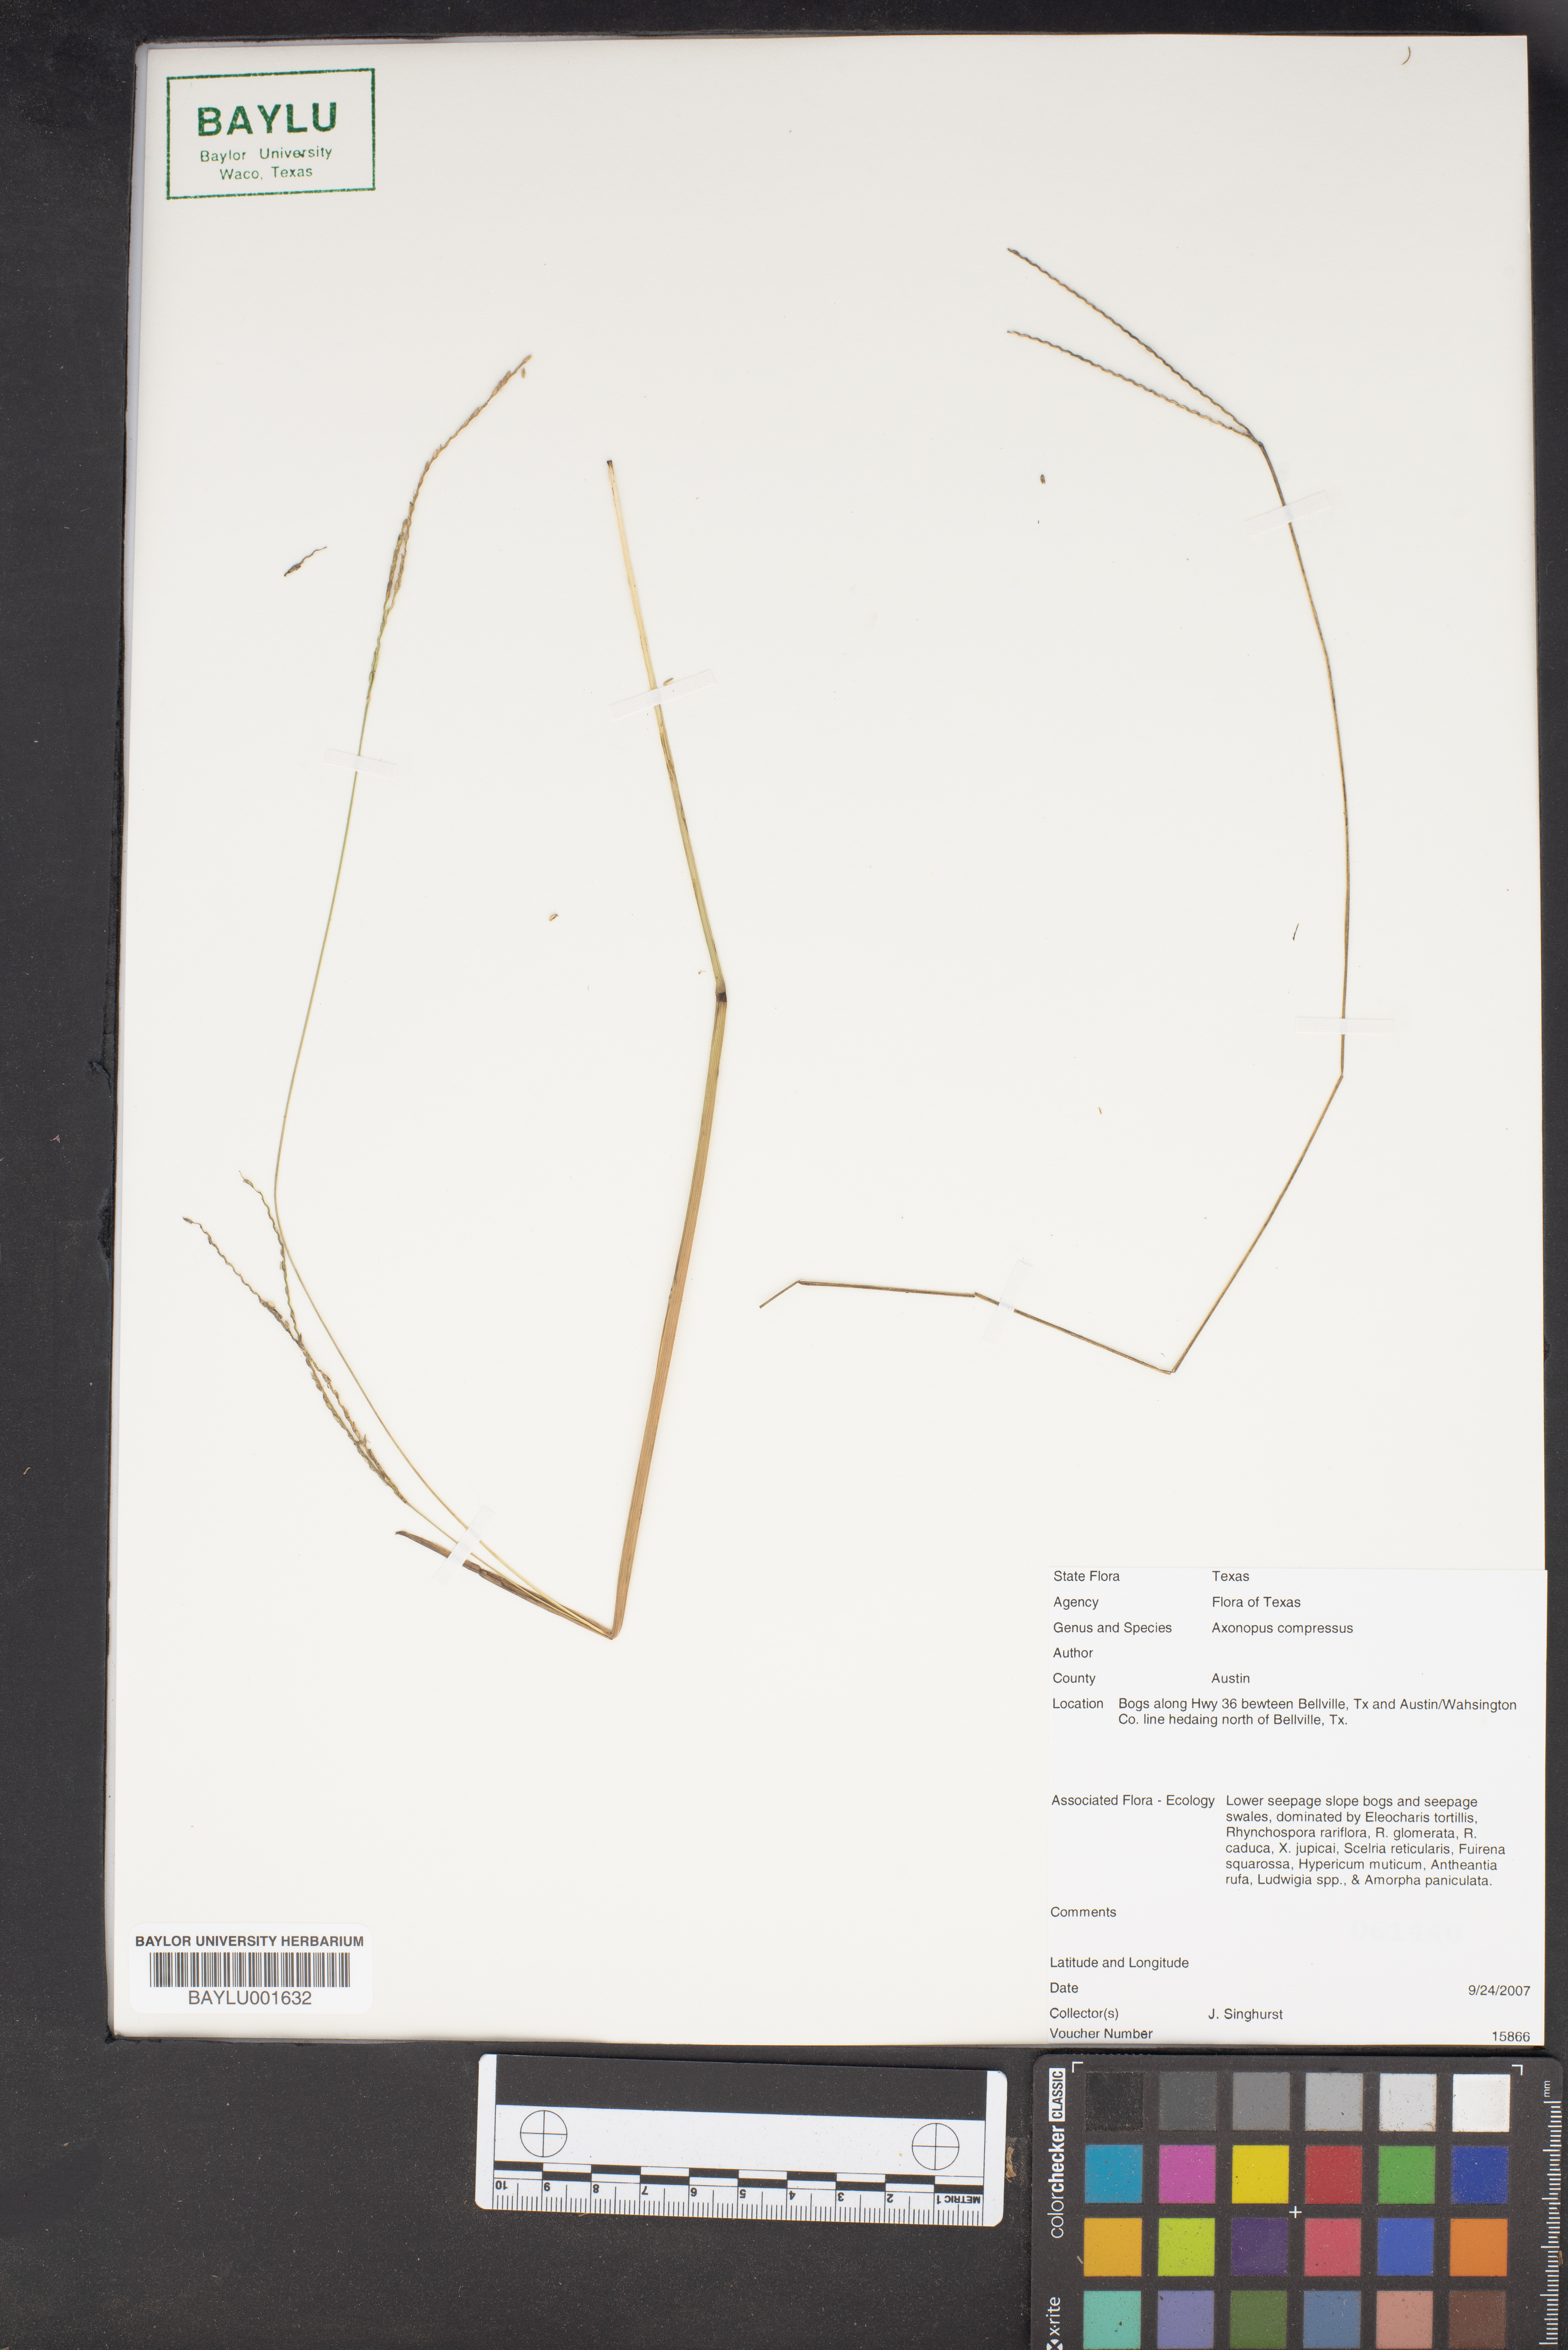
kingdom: Plantae
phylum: Tracheophyta
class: Liliopsida
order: Poales
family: Poaceae
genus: Axonopus
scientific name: Axonopus compressus
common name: American carpet grass
